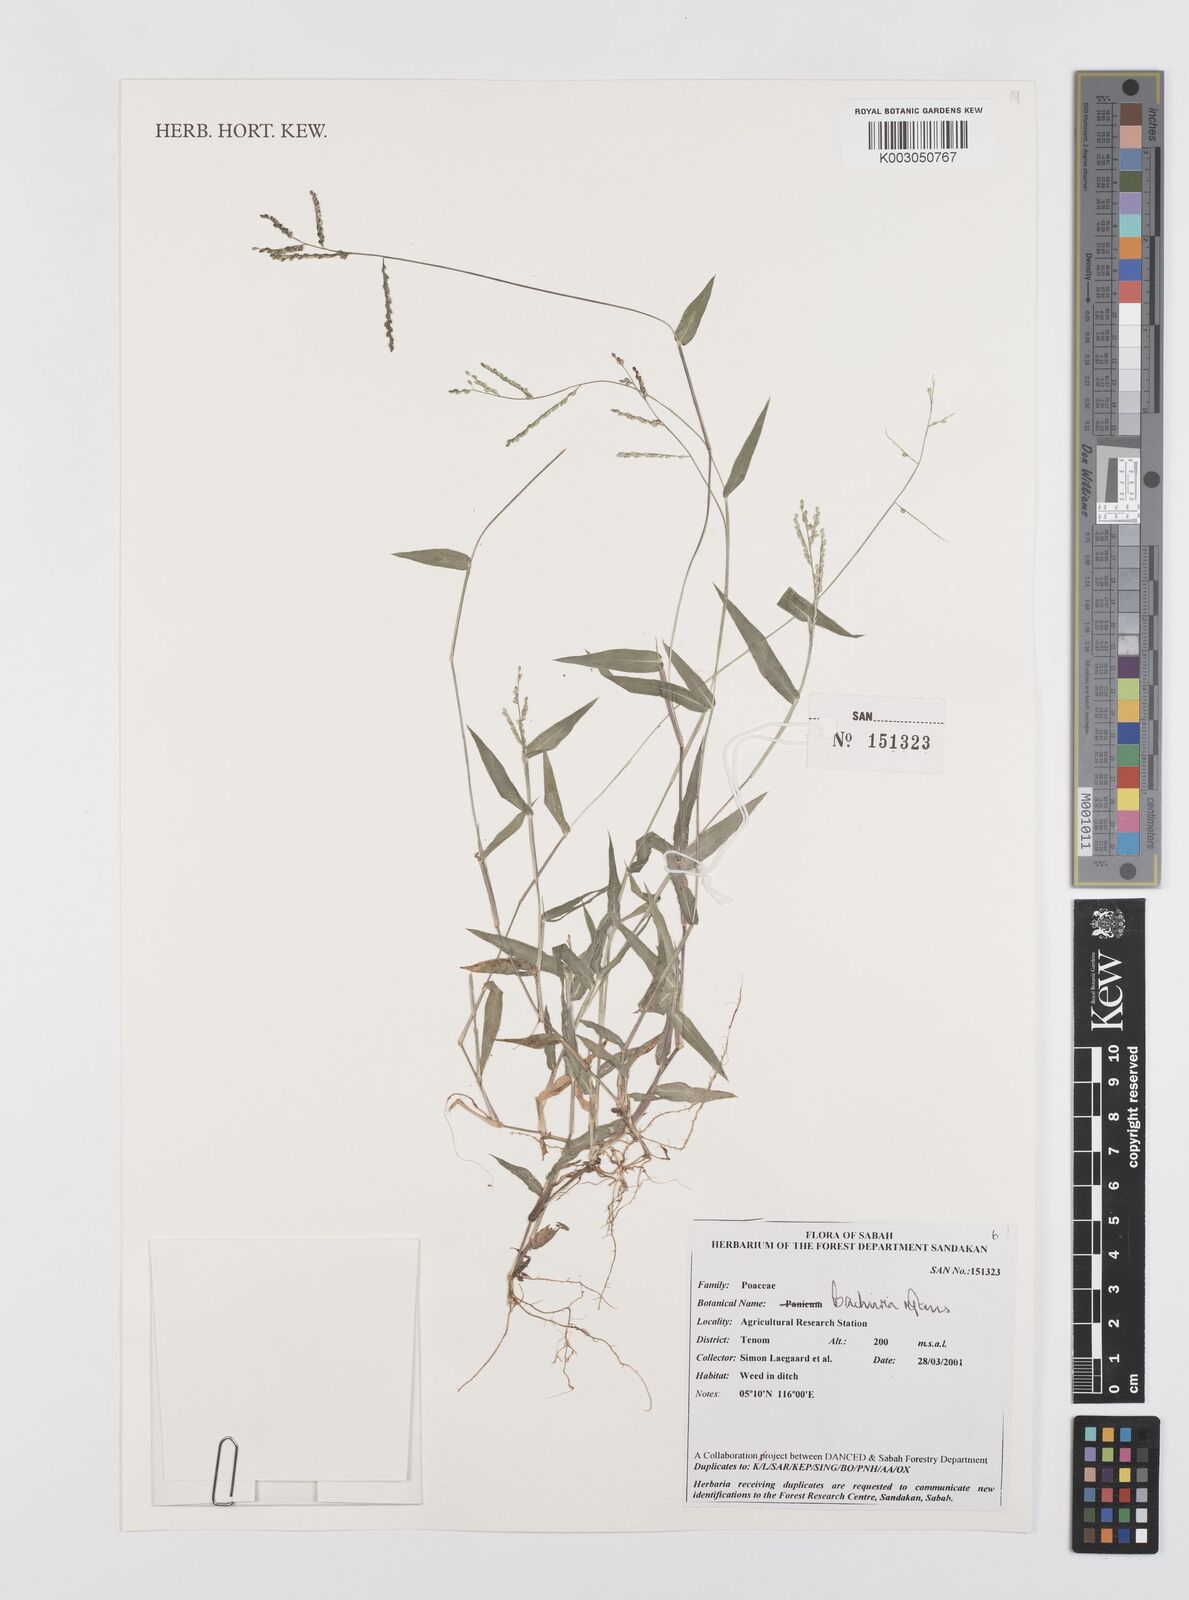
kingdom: Plantae
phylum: Tracheophyta
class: Liliopsida
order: Poales
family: Poaceae
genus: Urochloa
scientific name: Urochloa reptans
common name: Sprawling signalgrass
